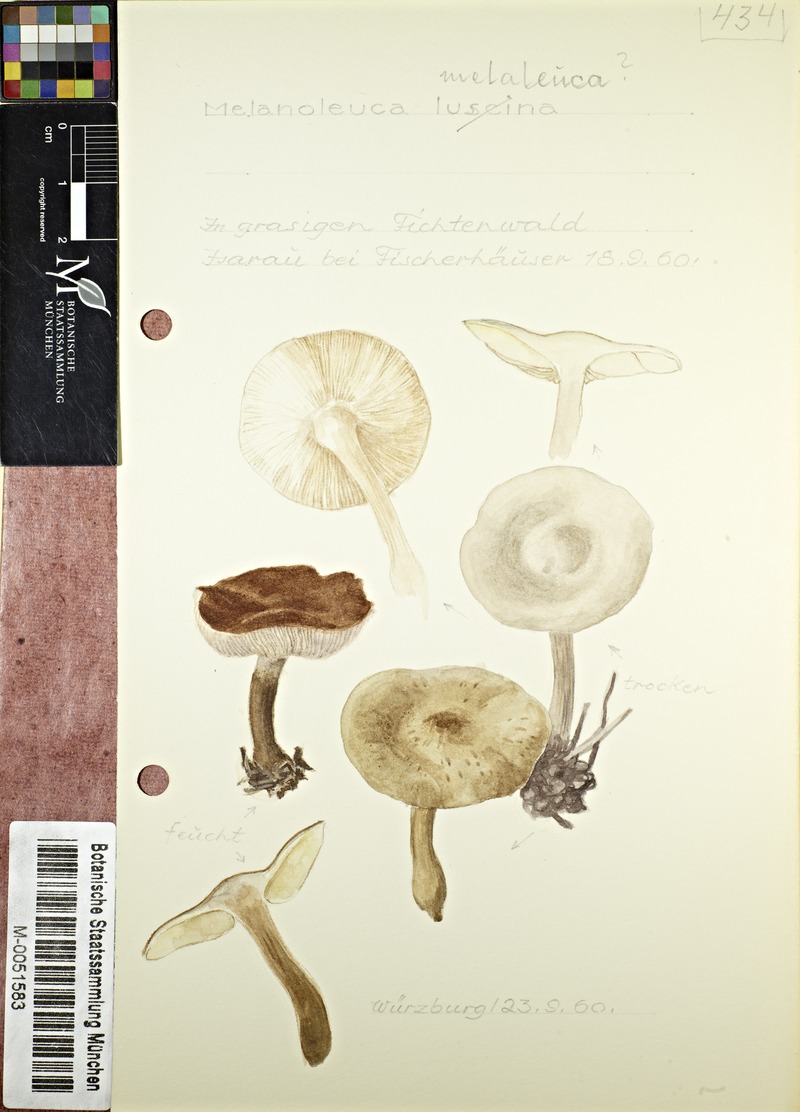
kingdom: Fungi
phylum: Basidiomycota
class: Agaricomycetes
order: Agaricales
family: Tricholomataceae
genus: Melanoleuca
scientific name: Melanoleuca melaleuca
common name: Bald cavalier
